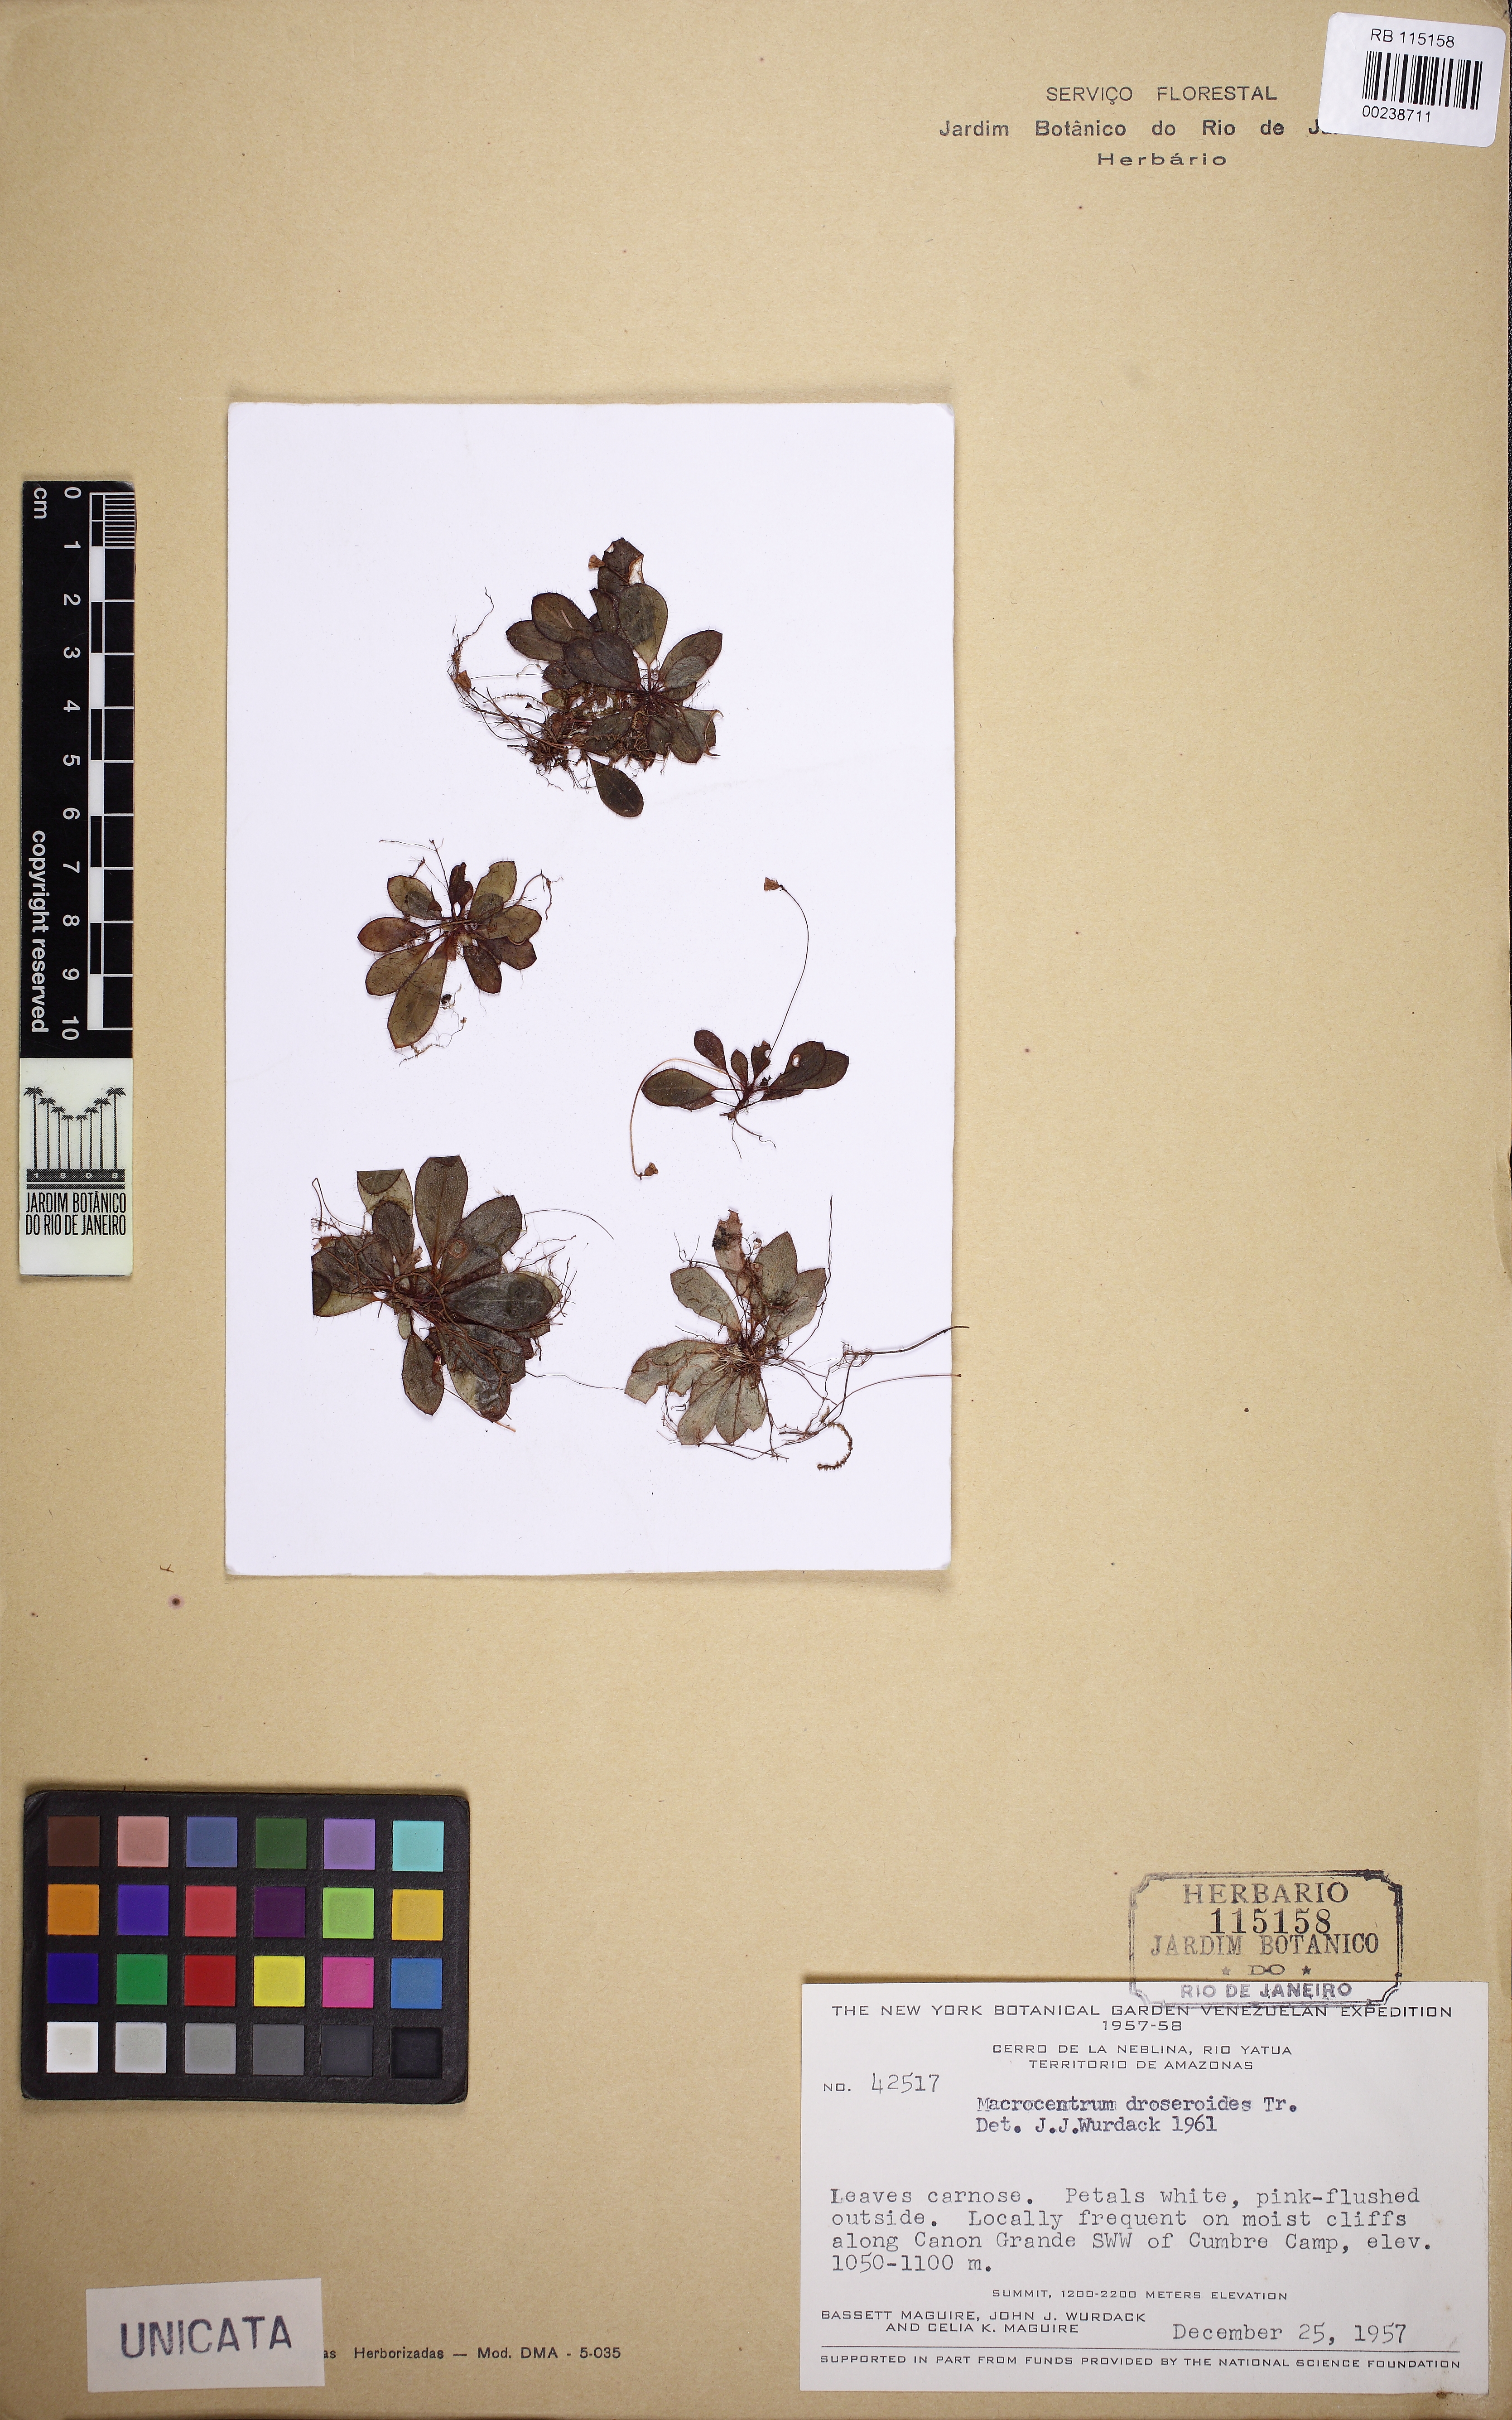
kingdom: Plantae
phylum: Tracheophyta
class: Magnoliopsida
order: Myrtales
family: Melastomataceae
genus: Macrocentrum
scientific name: Macrocentrum droseroides
